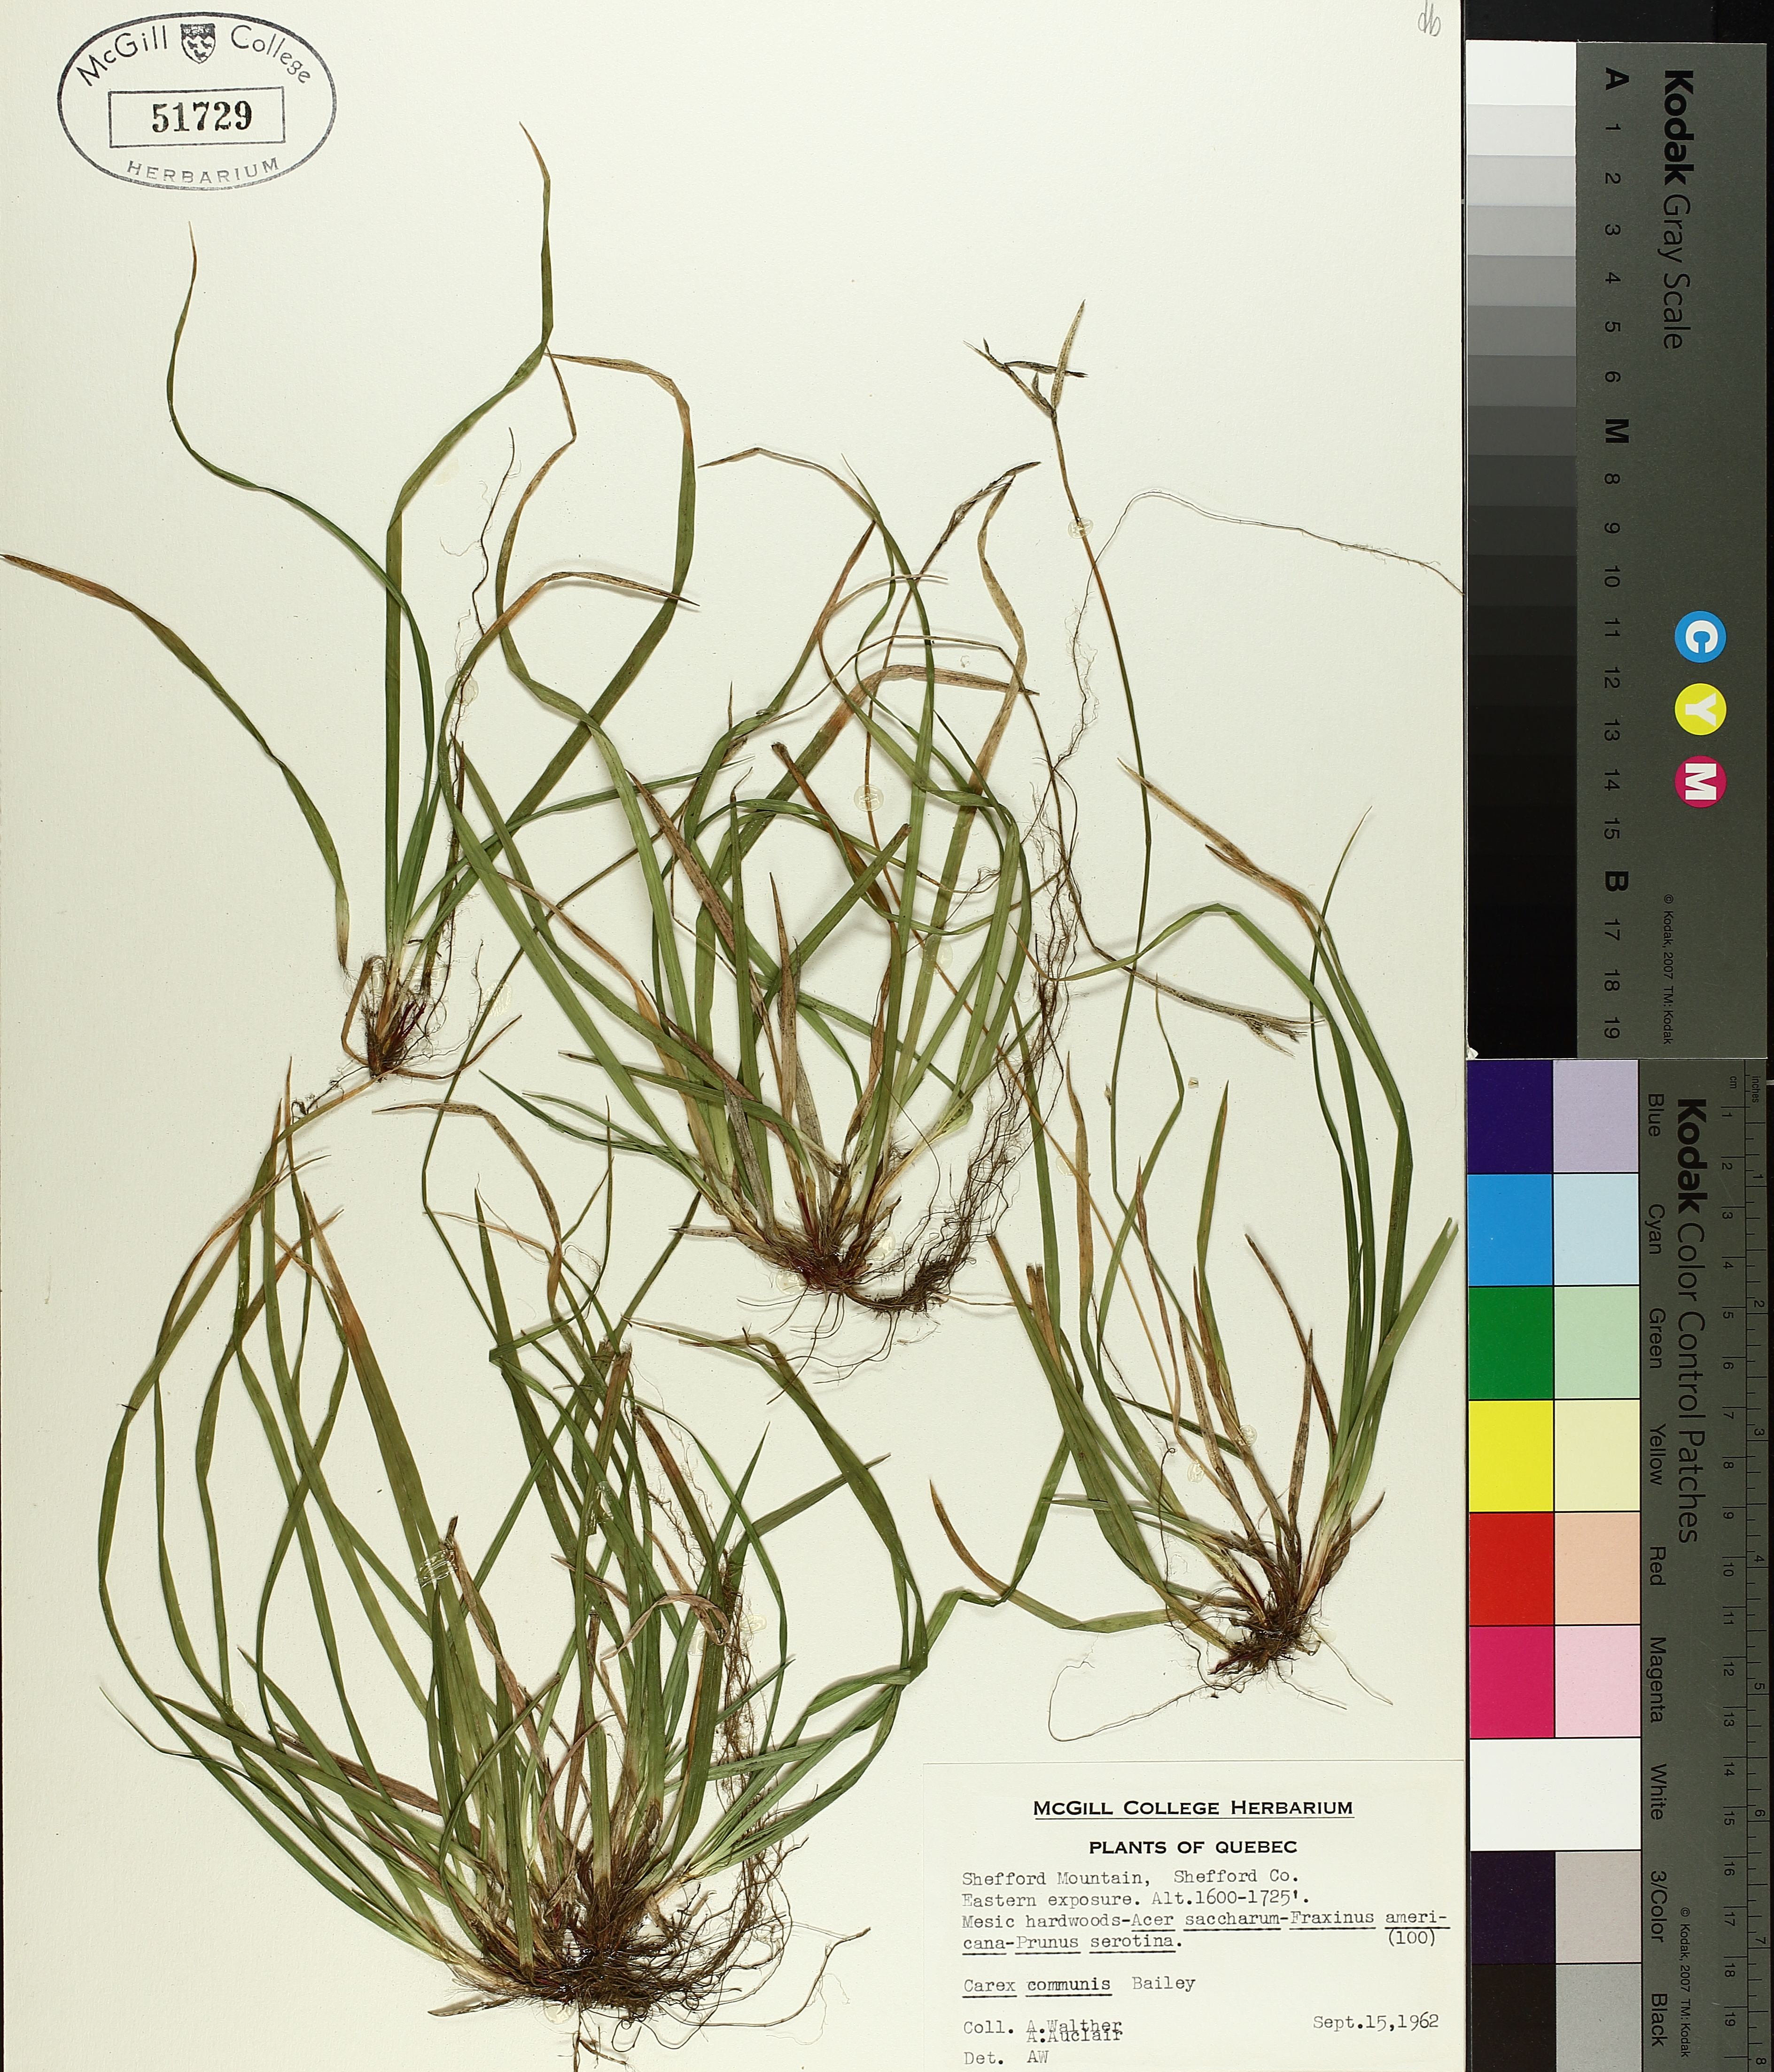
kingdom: Plantae
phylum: Tracheophyta
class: Liliopsida
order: Poales
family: Cyperaceae
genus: Carex
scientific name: Carex communis
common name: Colonial oak sedge
